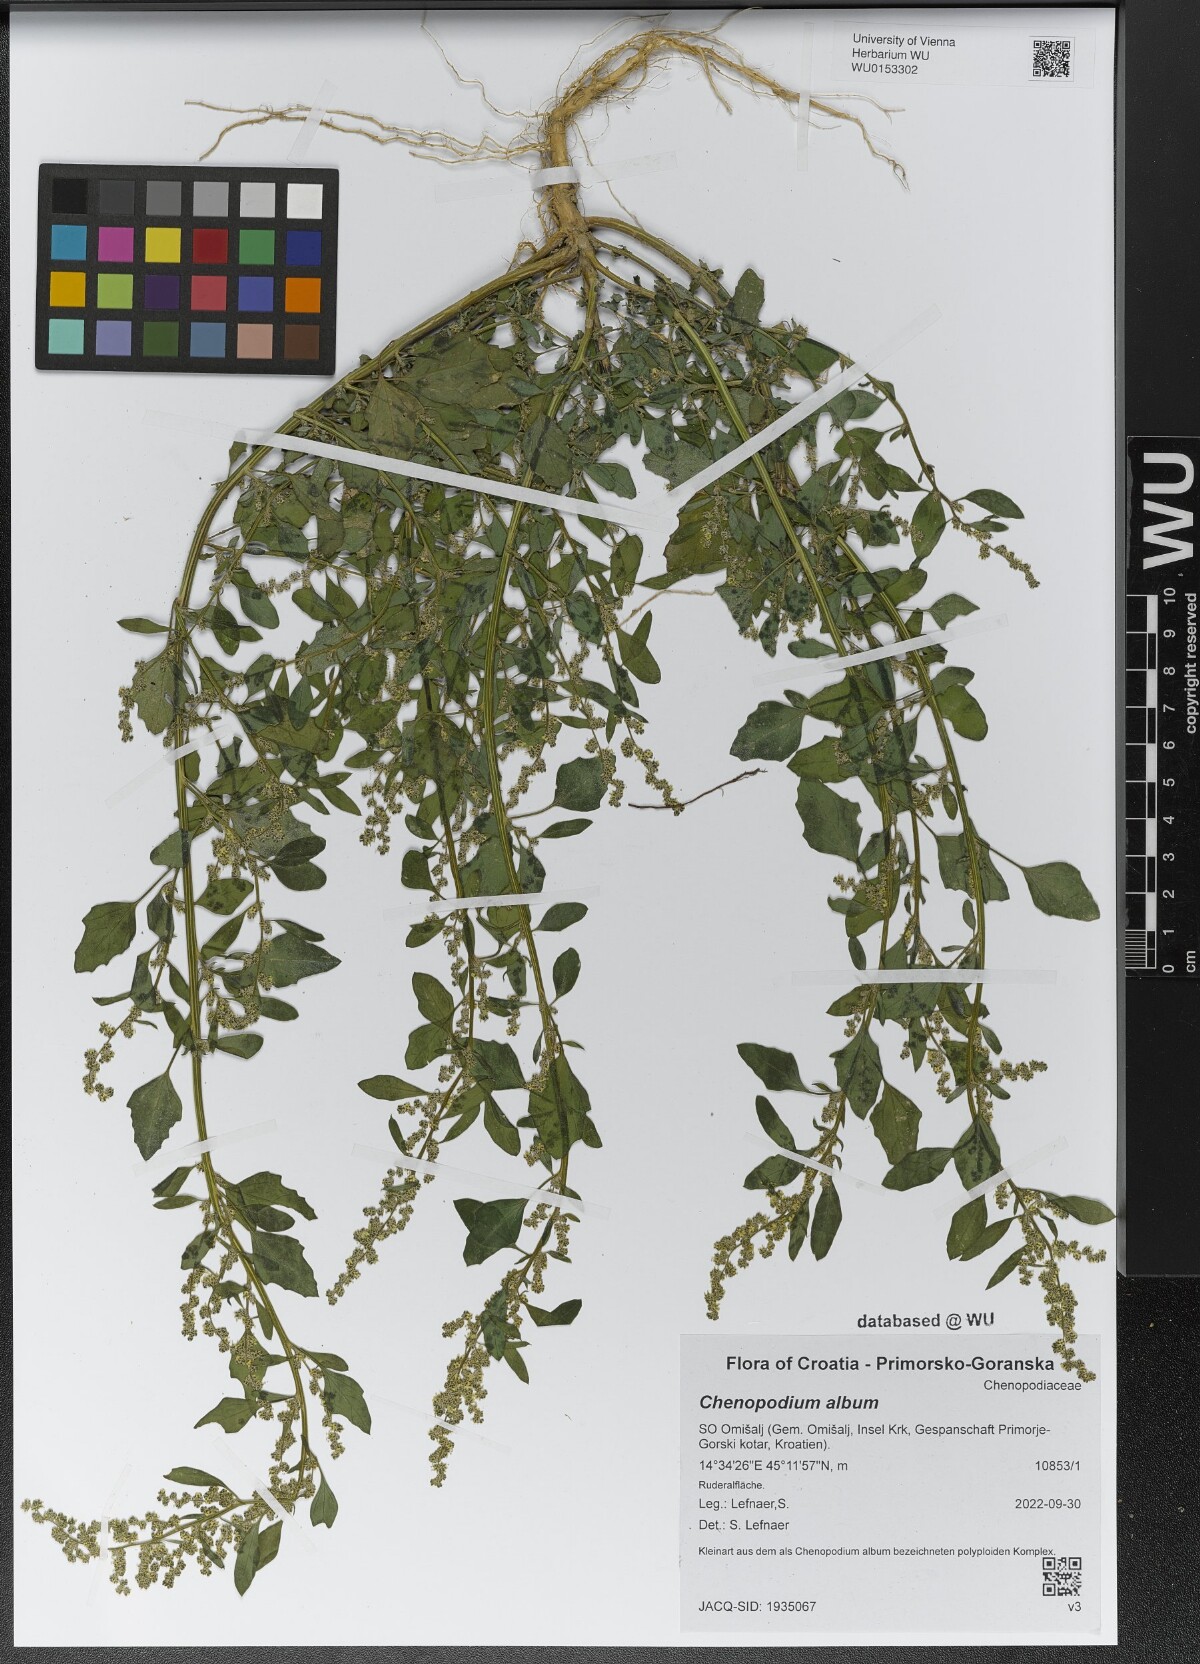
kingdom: Plantae
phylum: Tracheophyta
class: Magnoliopsida
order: Caryophyllales
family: Amaranthaceae
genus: Chenopodium
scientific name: Chenopodium album
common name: Fat-hen
